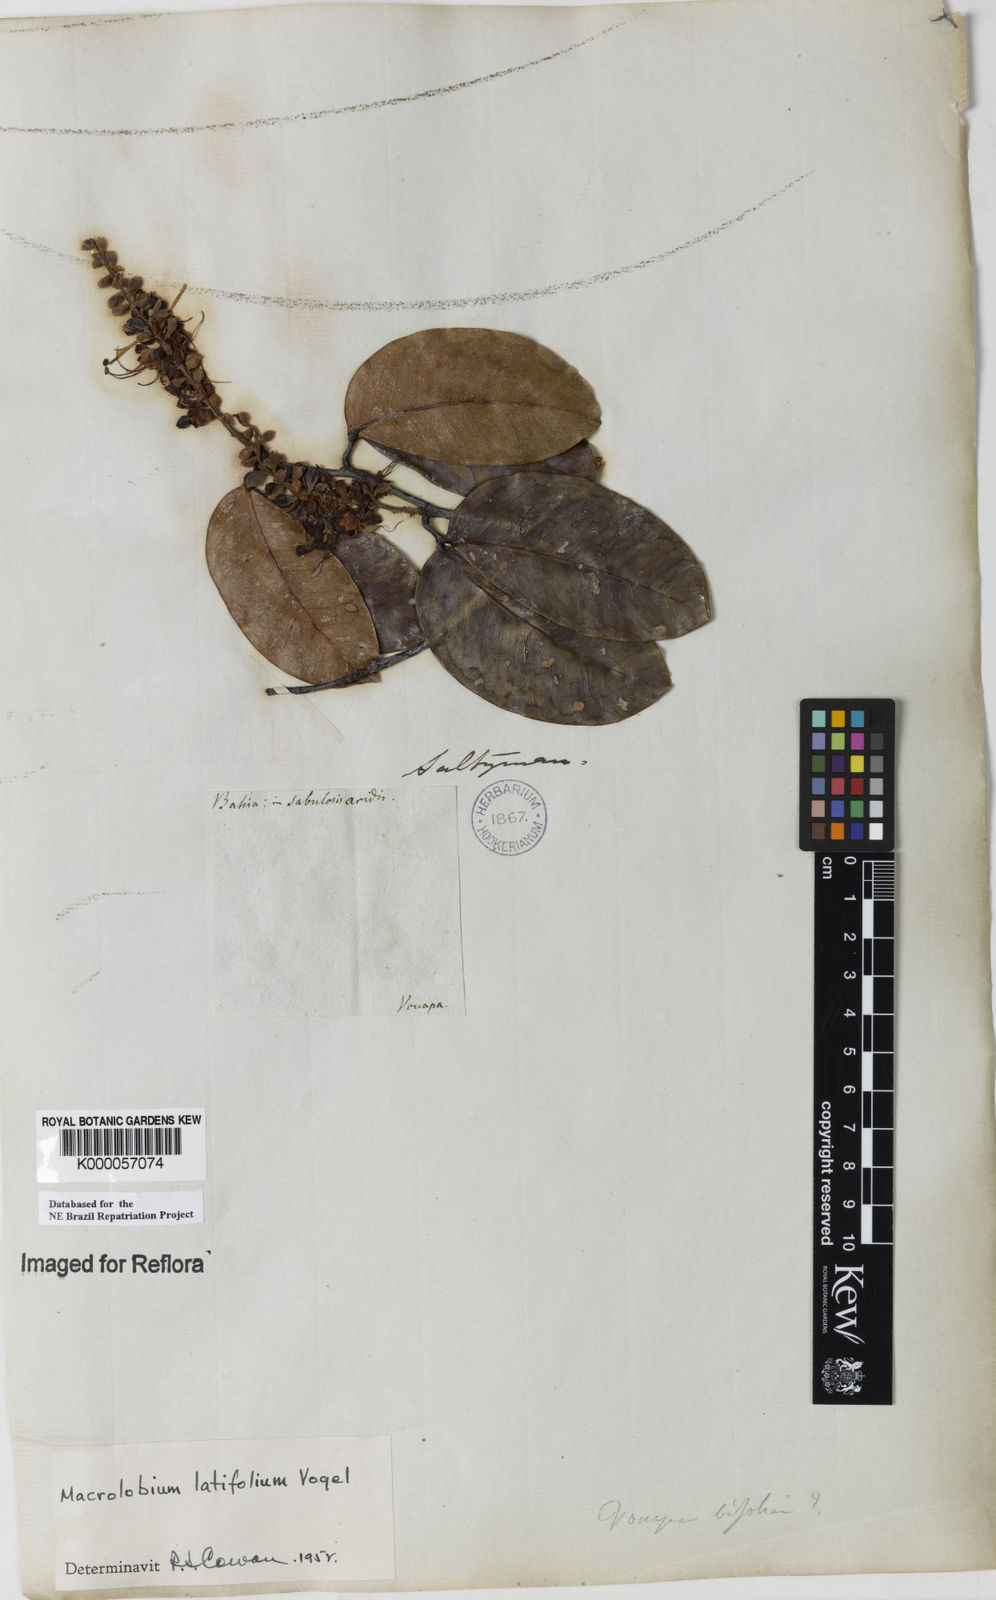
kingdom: Plantae
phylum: Tracheophyta
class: Magnoliopsida
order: Fabales
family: Fabaceae
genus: Macrolobium
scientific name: Macrolobium latifolium
